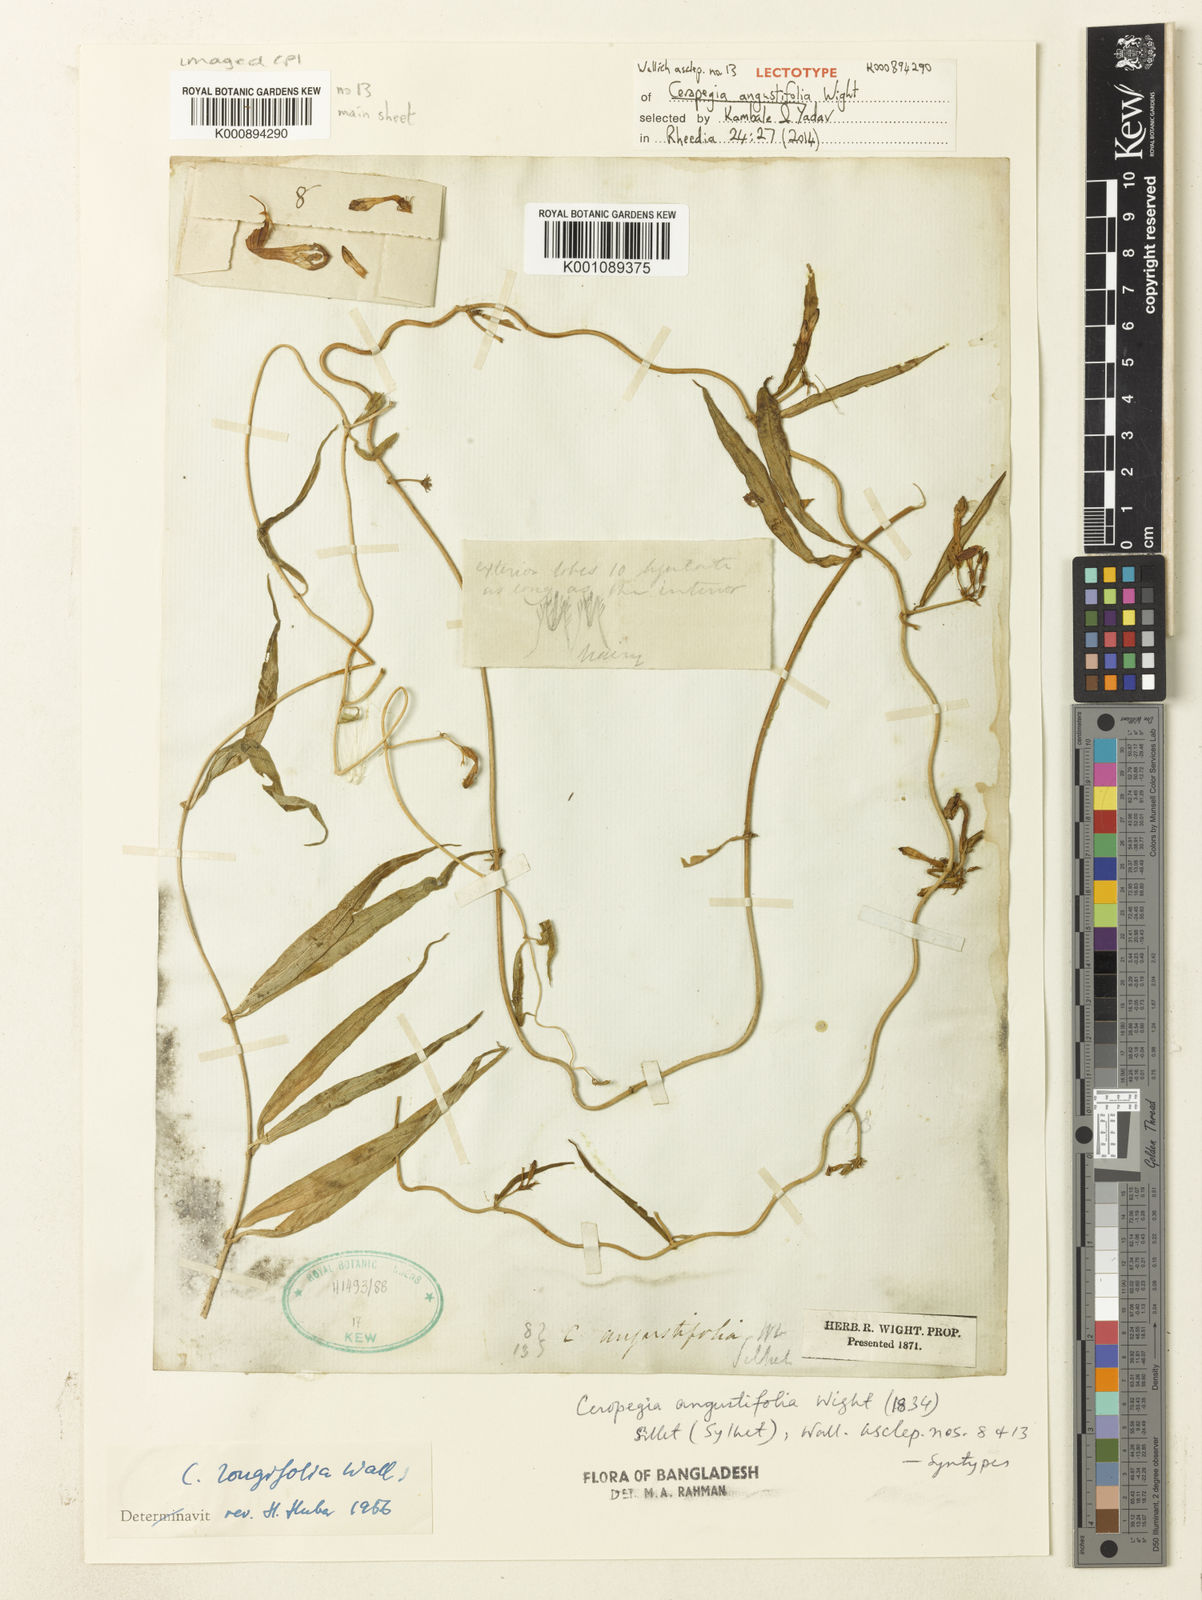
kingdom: Plantae
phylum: Tracheophyta
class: Magnoliopsida
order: Gentianales
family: Apocynaceae
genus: Ceropegia
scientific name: Ceropegia angustifolia
